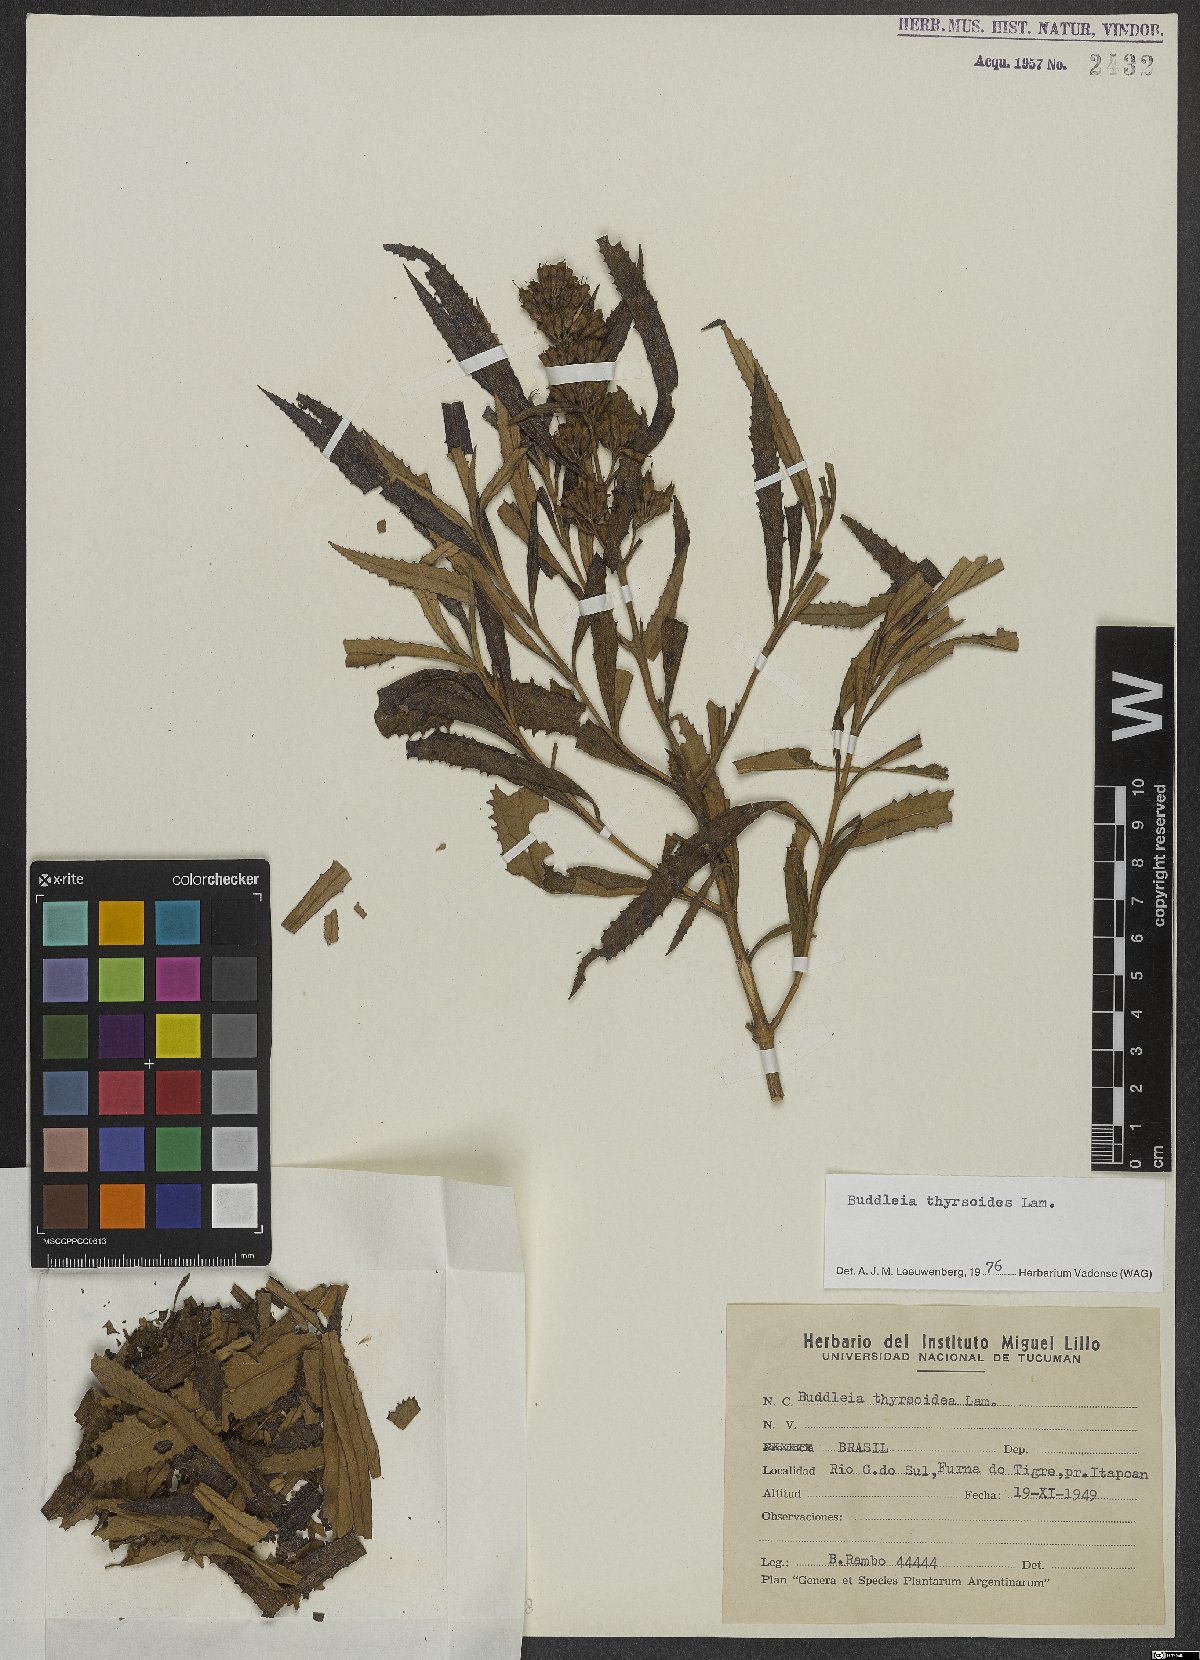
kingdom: Plantae
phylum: Tracheophyta
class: Magnoliopsida
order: Lamiales
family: Scrophulariaceae
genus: Buddleja
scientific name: Buddleja thyrsoides
